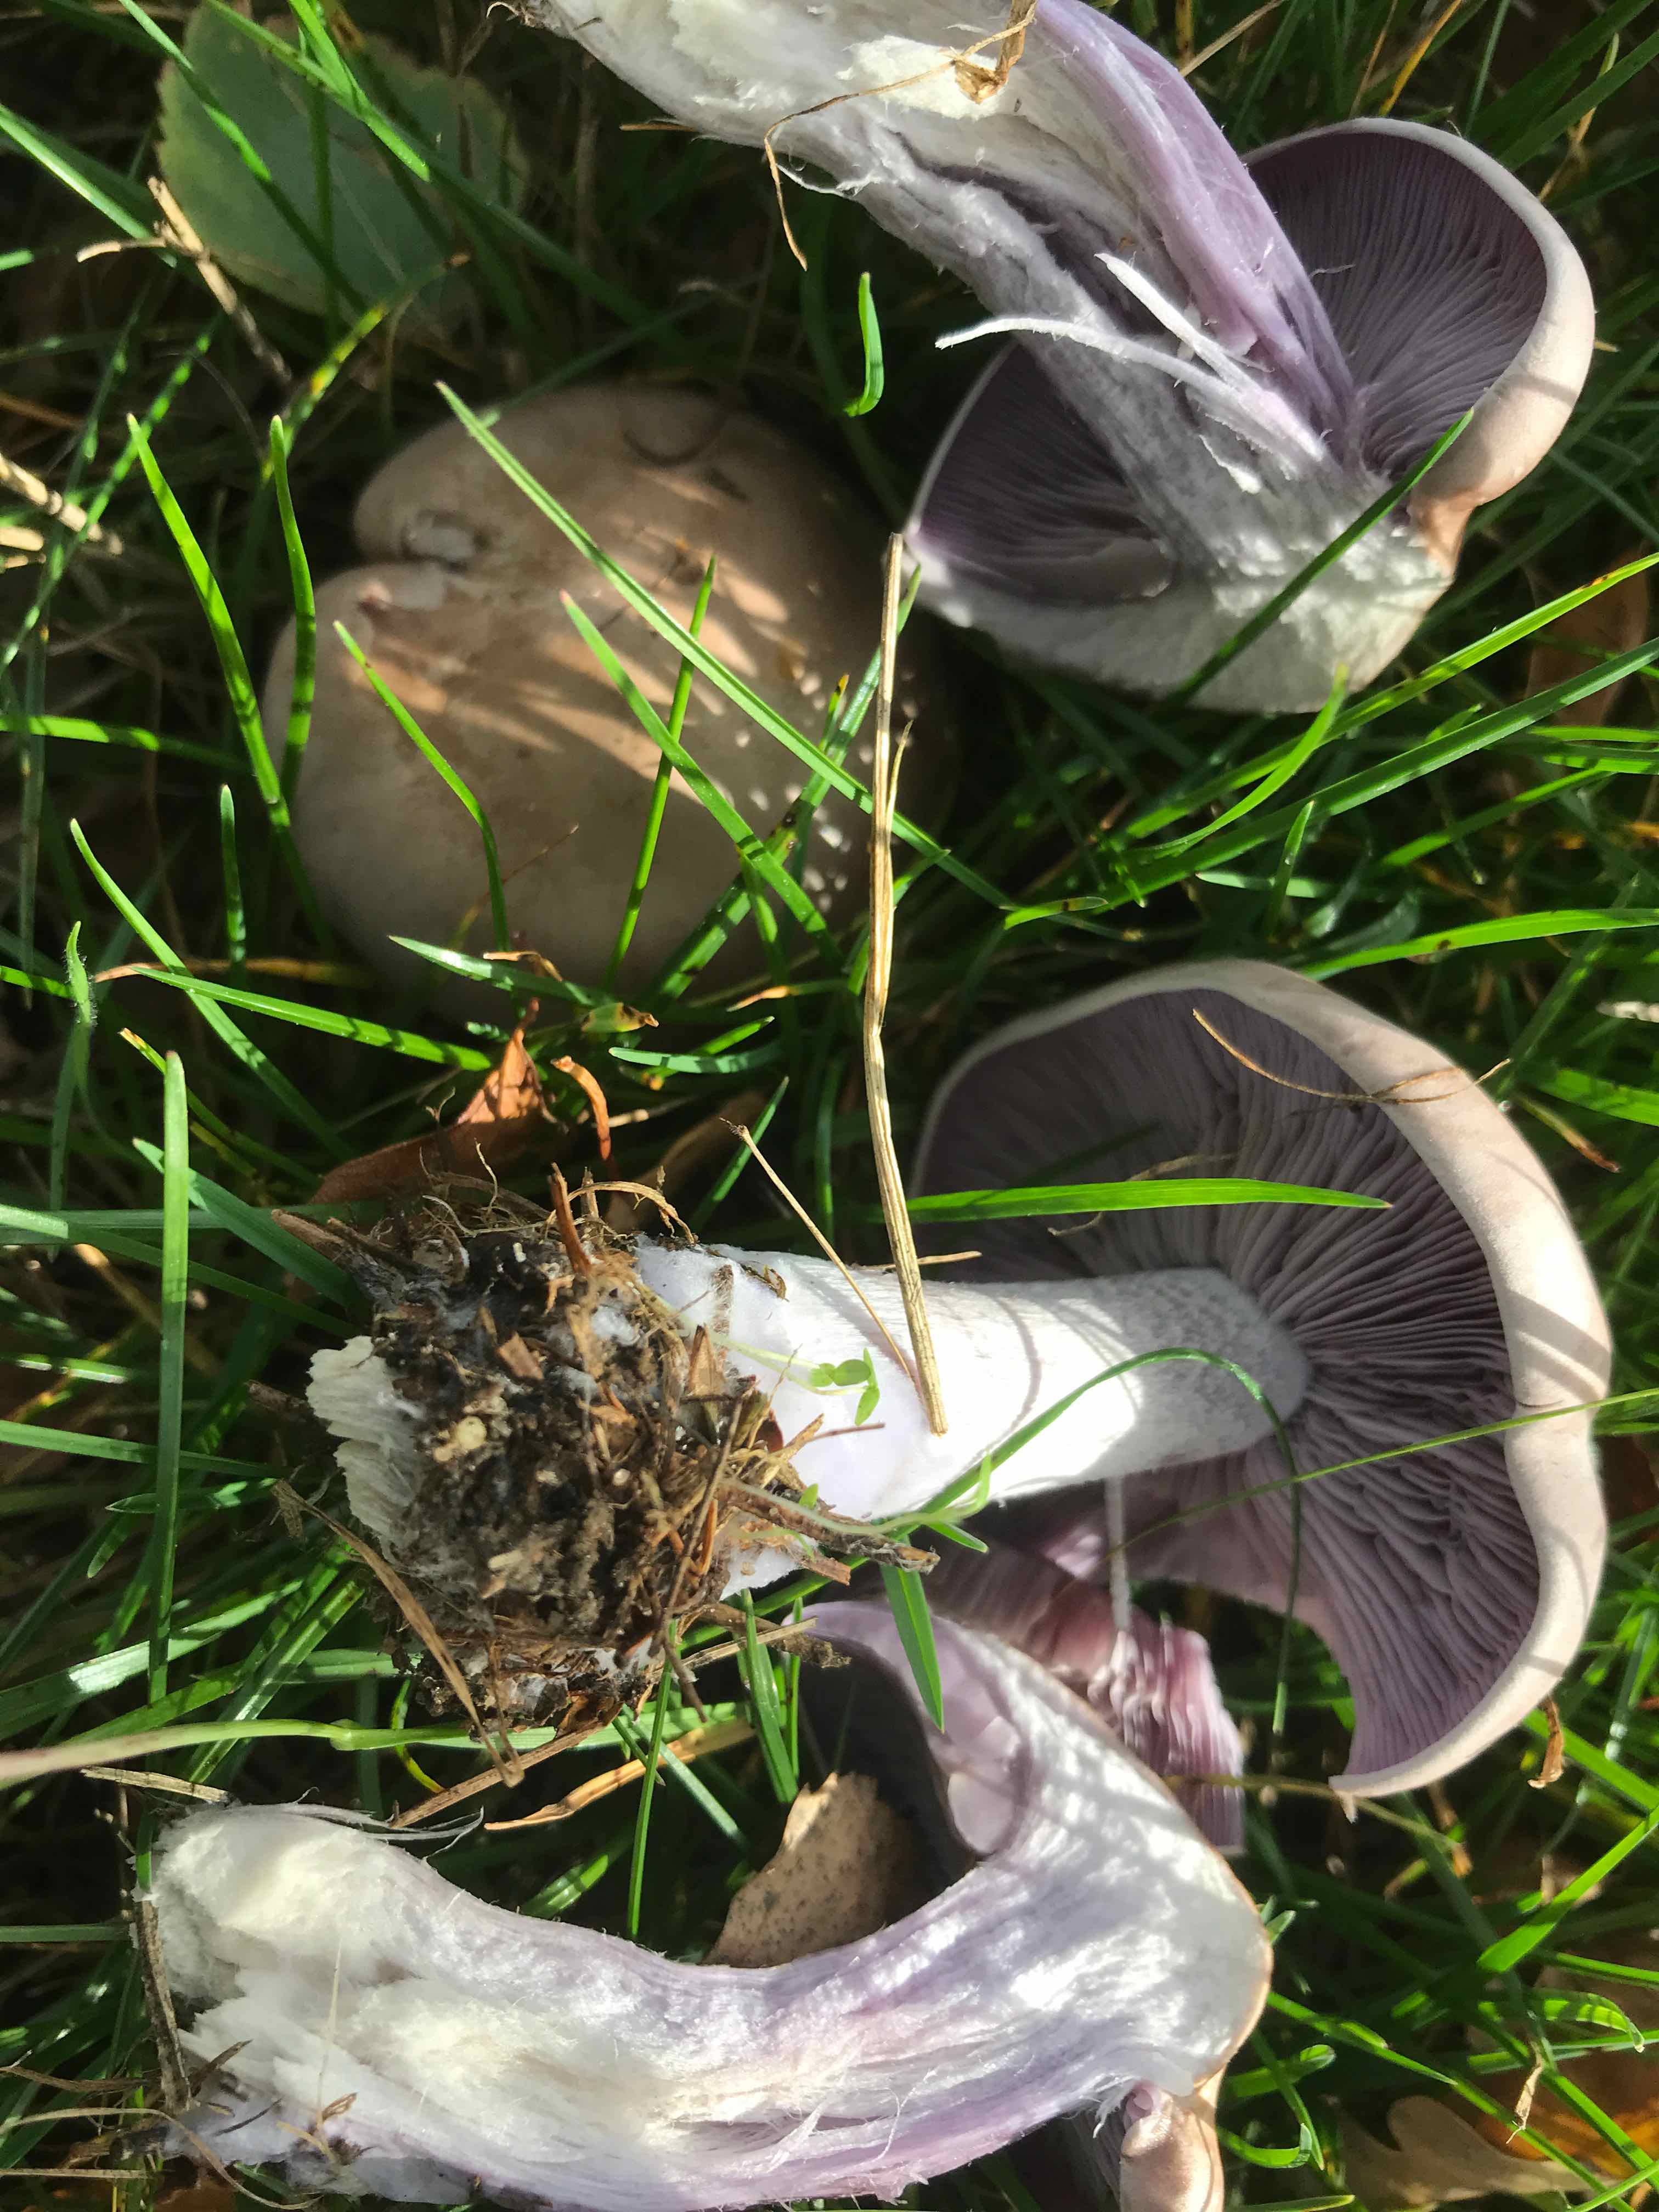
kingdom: Fungi
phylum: Basidiomycota
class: Agaricomycetes
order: Agaricales
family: Tricholomataceae
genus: Lepista
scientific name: Lepista nuda
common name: violet hekseringshat
